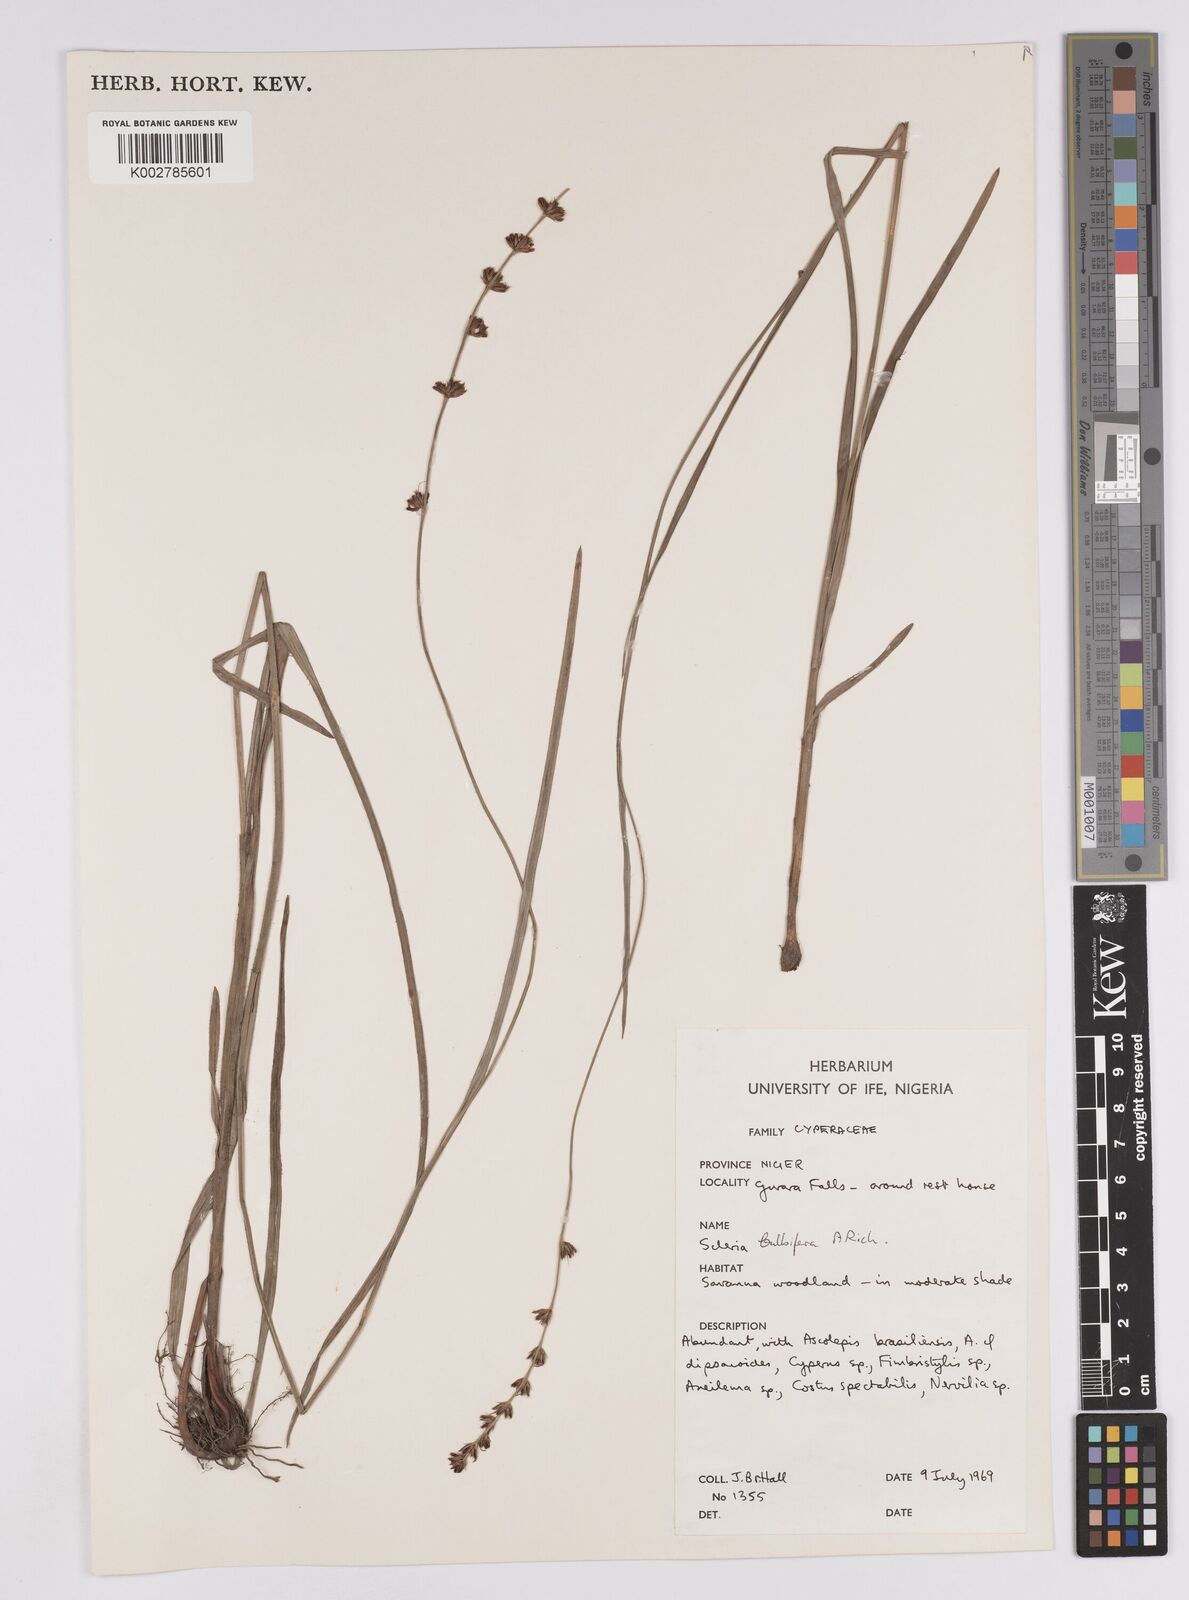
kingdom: Plantae
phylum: Tracheophyta
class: Liliopsida
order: Poales
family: Cyperaceae
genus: Scleria
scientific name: Scleria bulbifera
